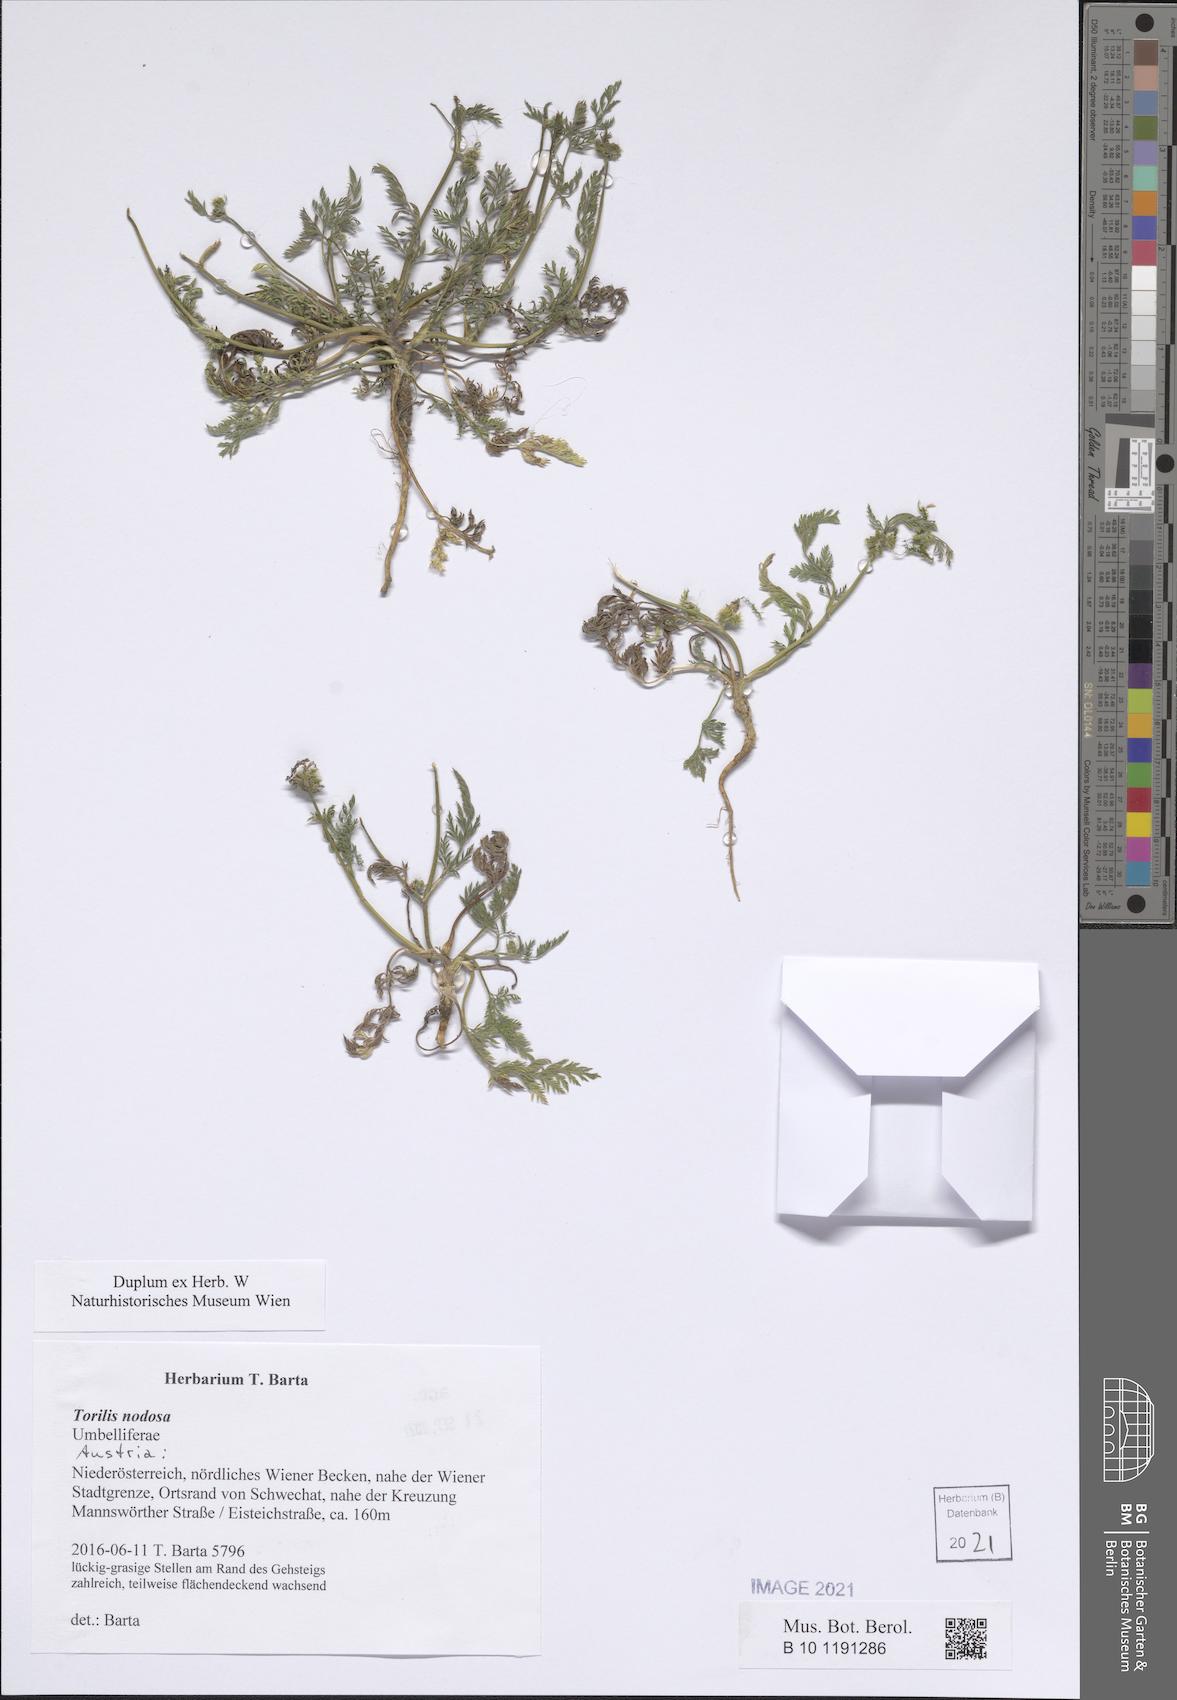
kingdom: Plantae
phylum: Tracheophyta
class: Magnoliopsida
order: Apiales
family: Apiaceae
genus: Torilis
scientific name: Torilis nodosa
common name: Knotted hedge-parsley
